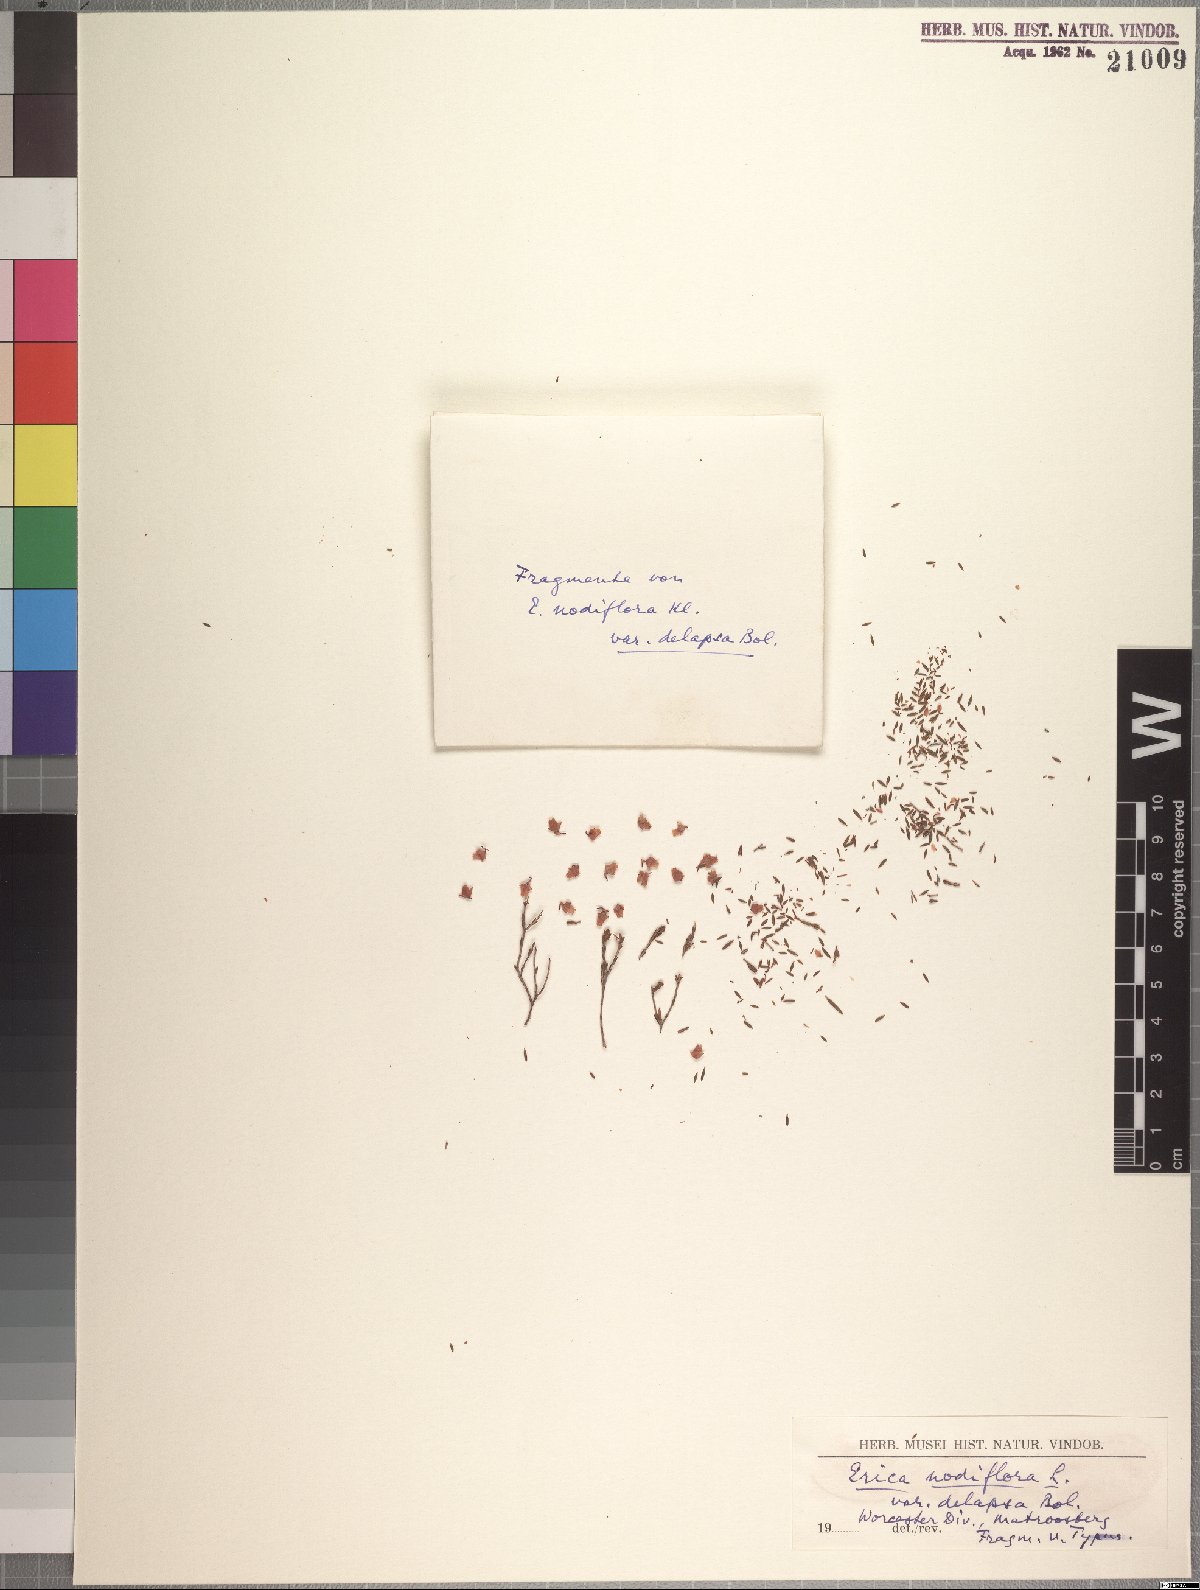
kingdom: Plantae
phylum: Tracheophyta
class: Magnoliopsida
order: Ericales
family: Ericaceae
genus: Erica
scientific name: Erica rhopalantha
